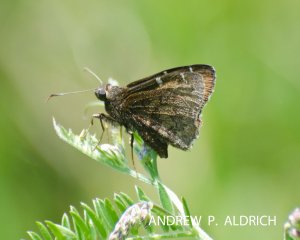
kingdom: Animalia
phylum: Arthropoda
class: Insecta
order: Lepidoptera
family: Hesperiidae
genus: Autochton
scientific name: Autochton
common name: Northern Cloudywing
